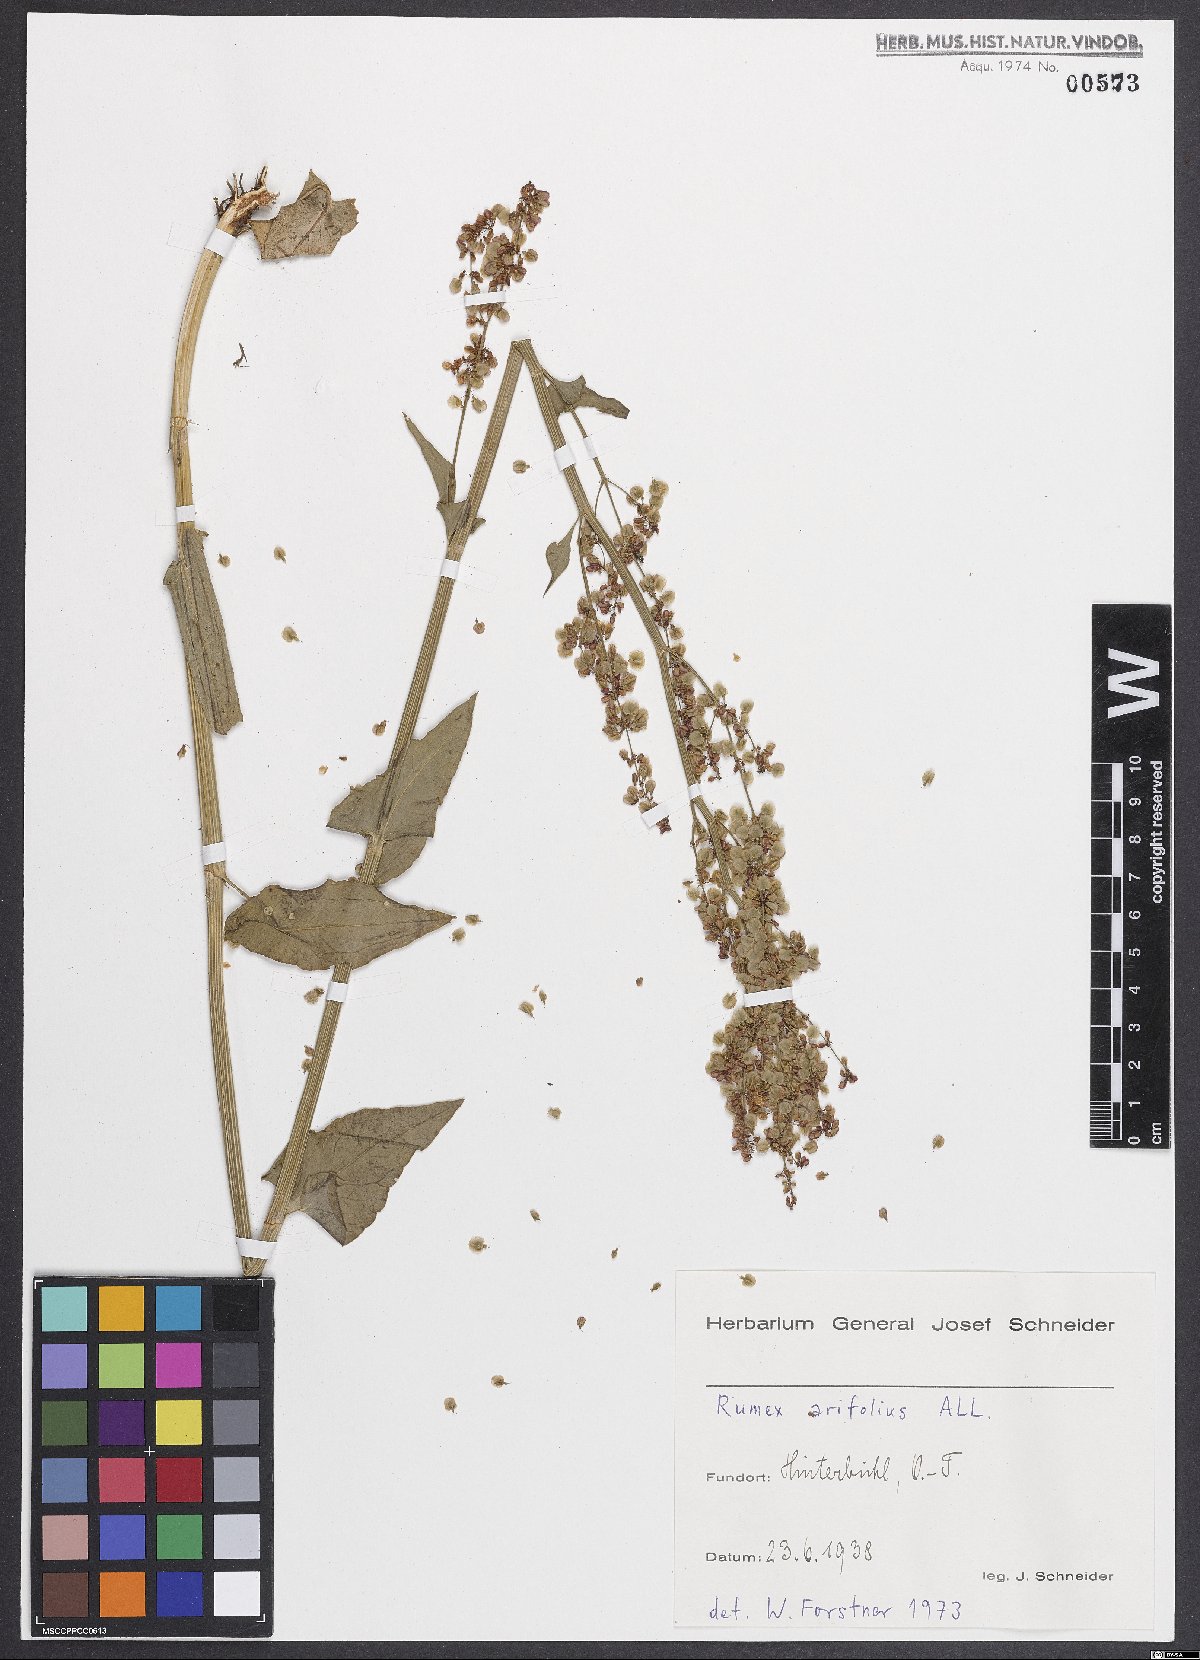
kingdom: Plantae
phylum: Tracheophyta
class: Magnoliopsida
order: Caryophyllales
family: Polygonaceae
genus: Rumex
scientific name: Rumex arifolius
